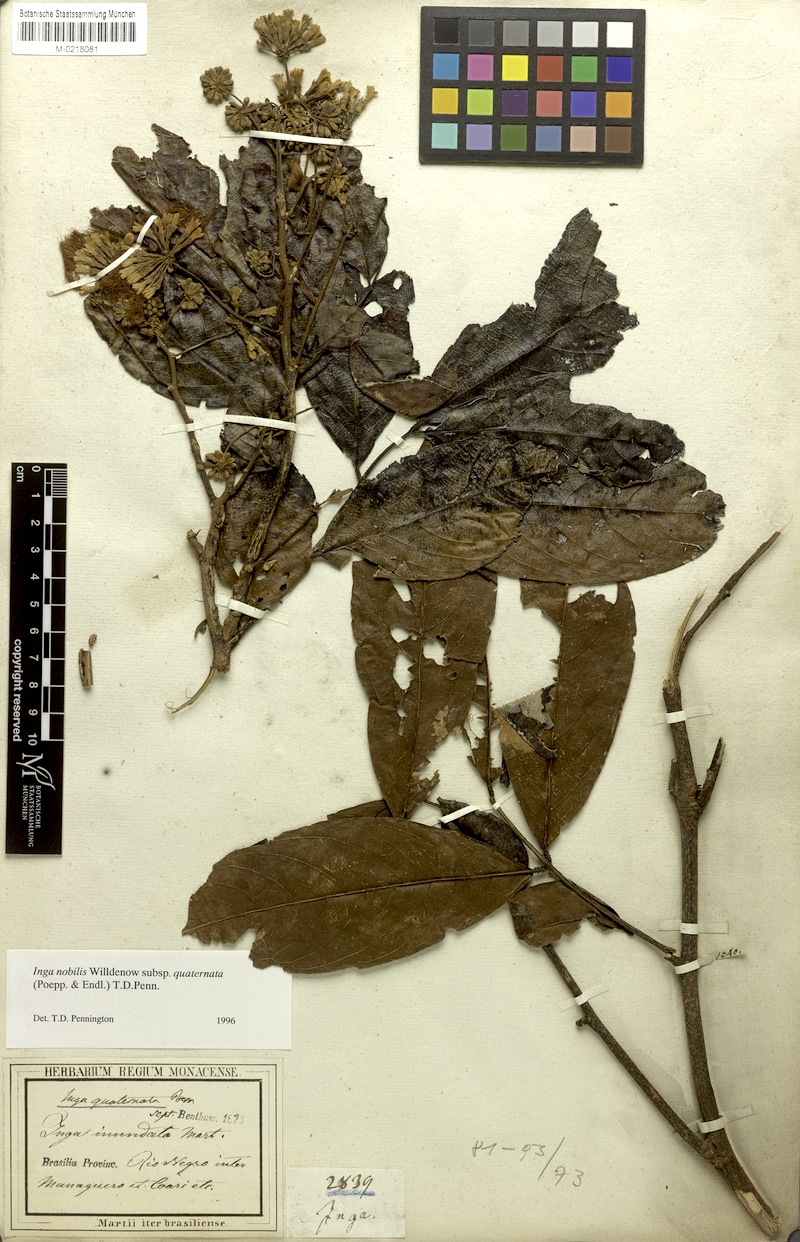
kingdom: Plantae
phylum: Tracheophyta
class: Magnoliopsida
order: Fabales
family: Fabaceae
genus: Inga
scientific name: Inga nobilis
